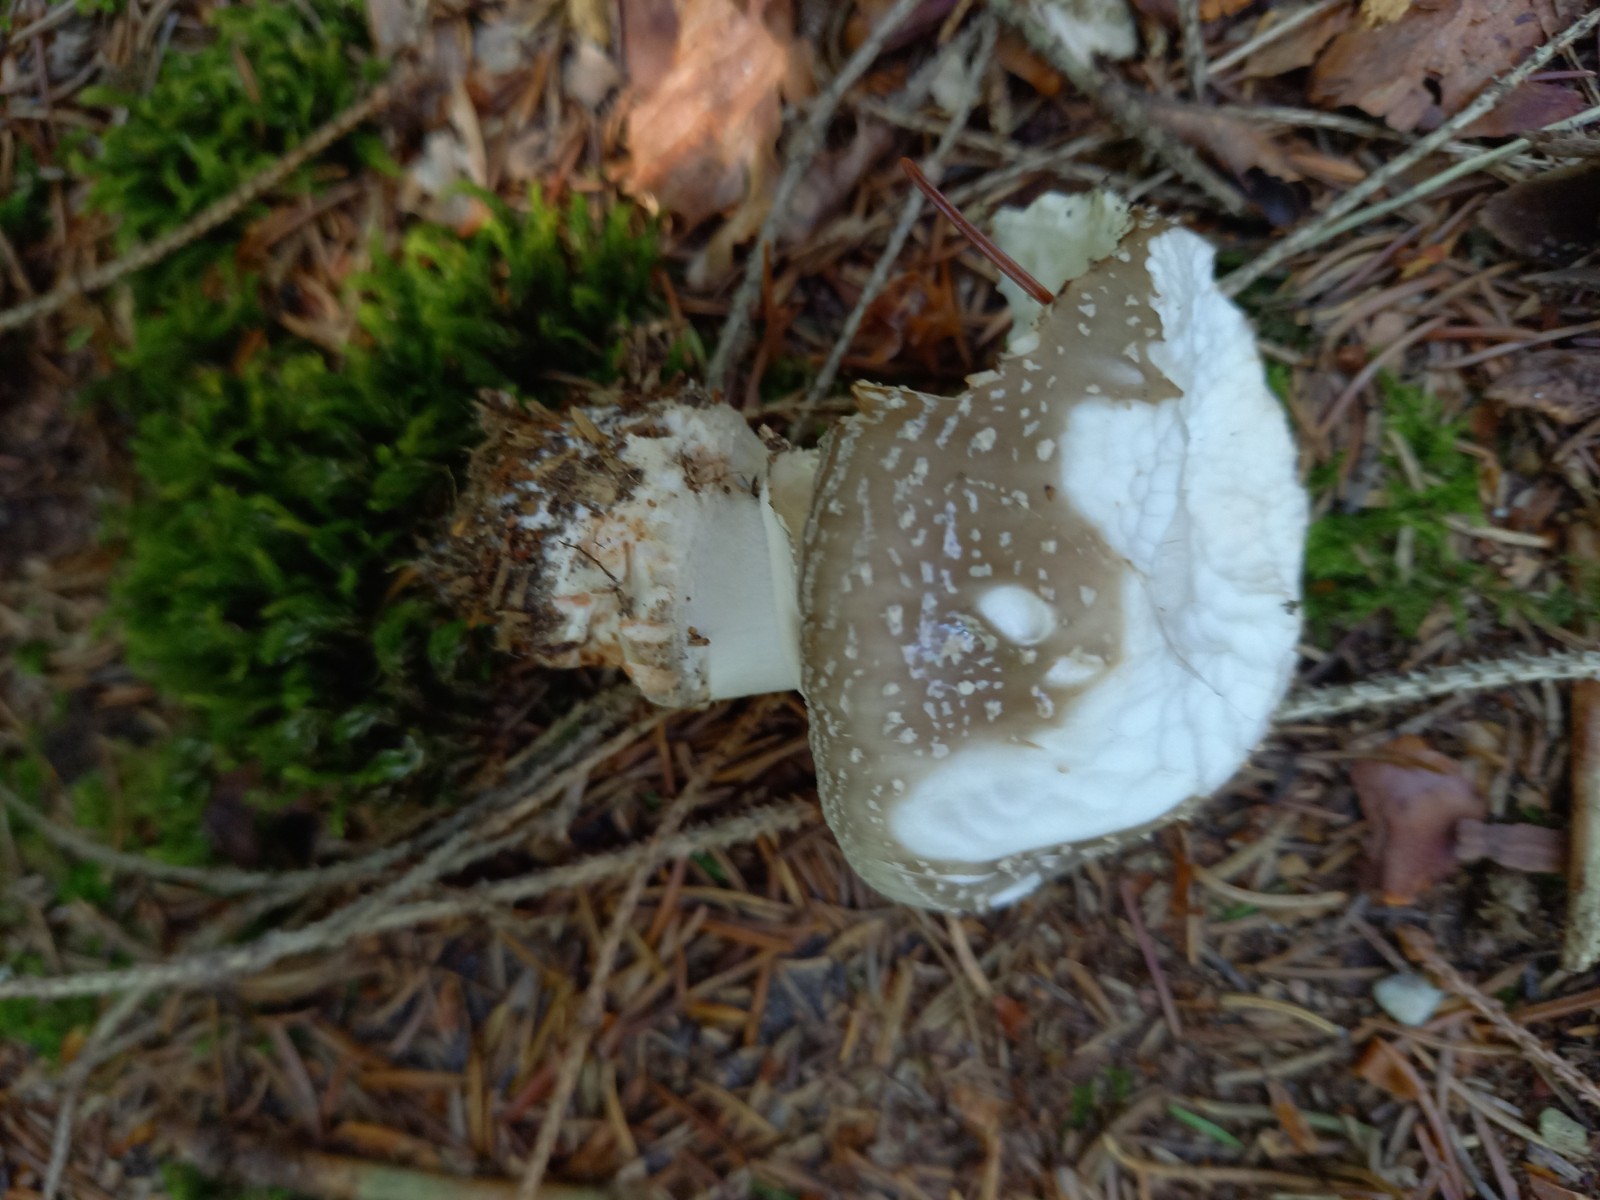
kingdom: Fungi
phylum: Basidiomycota
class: Agaricomycetes
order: Agaricales
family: Amanitaceae
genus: Amanita
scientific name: Amanita
